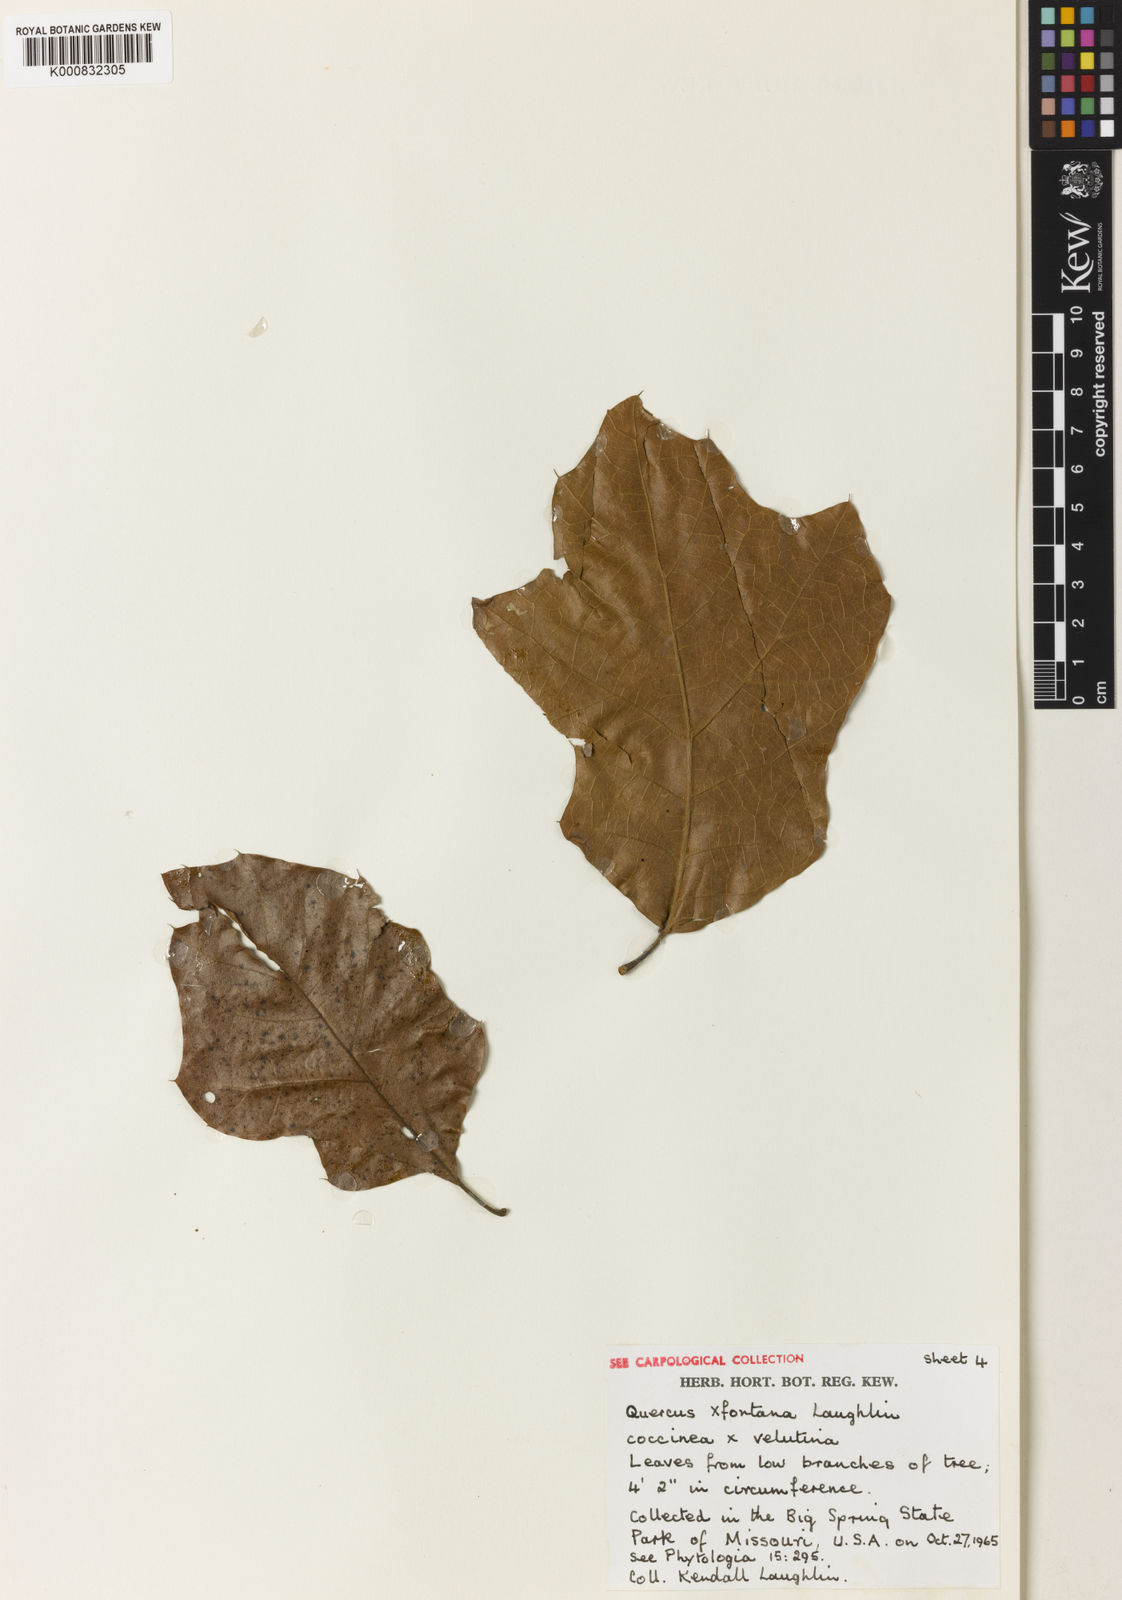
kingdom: Plantae
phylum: Tracheophyta
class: Magnoliopsida
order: Fagales
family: Fagaceae
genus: Quercus
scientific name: Quercus
